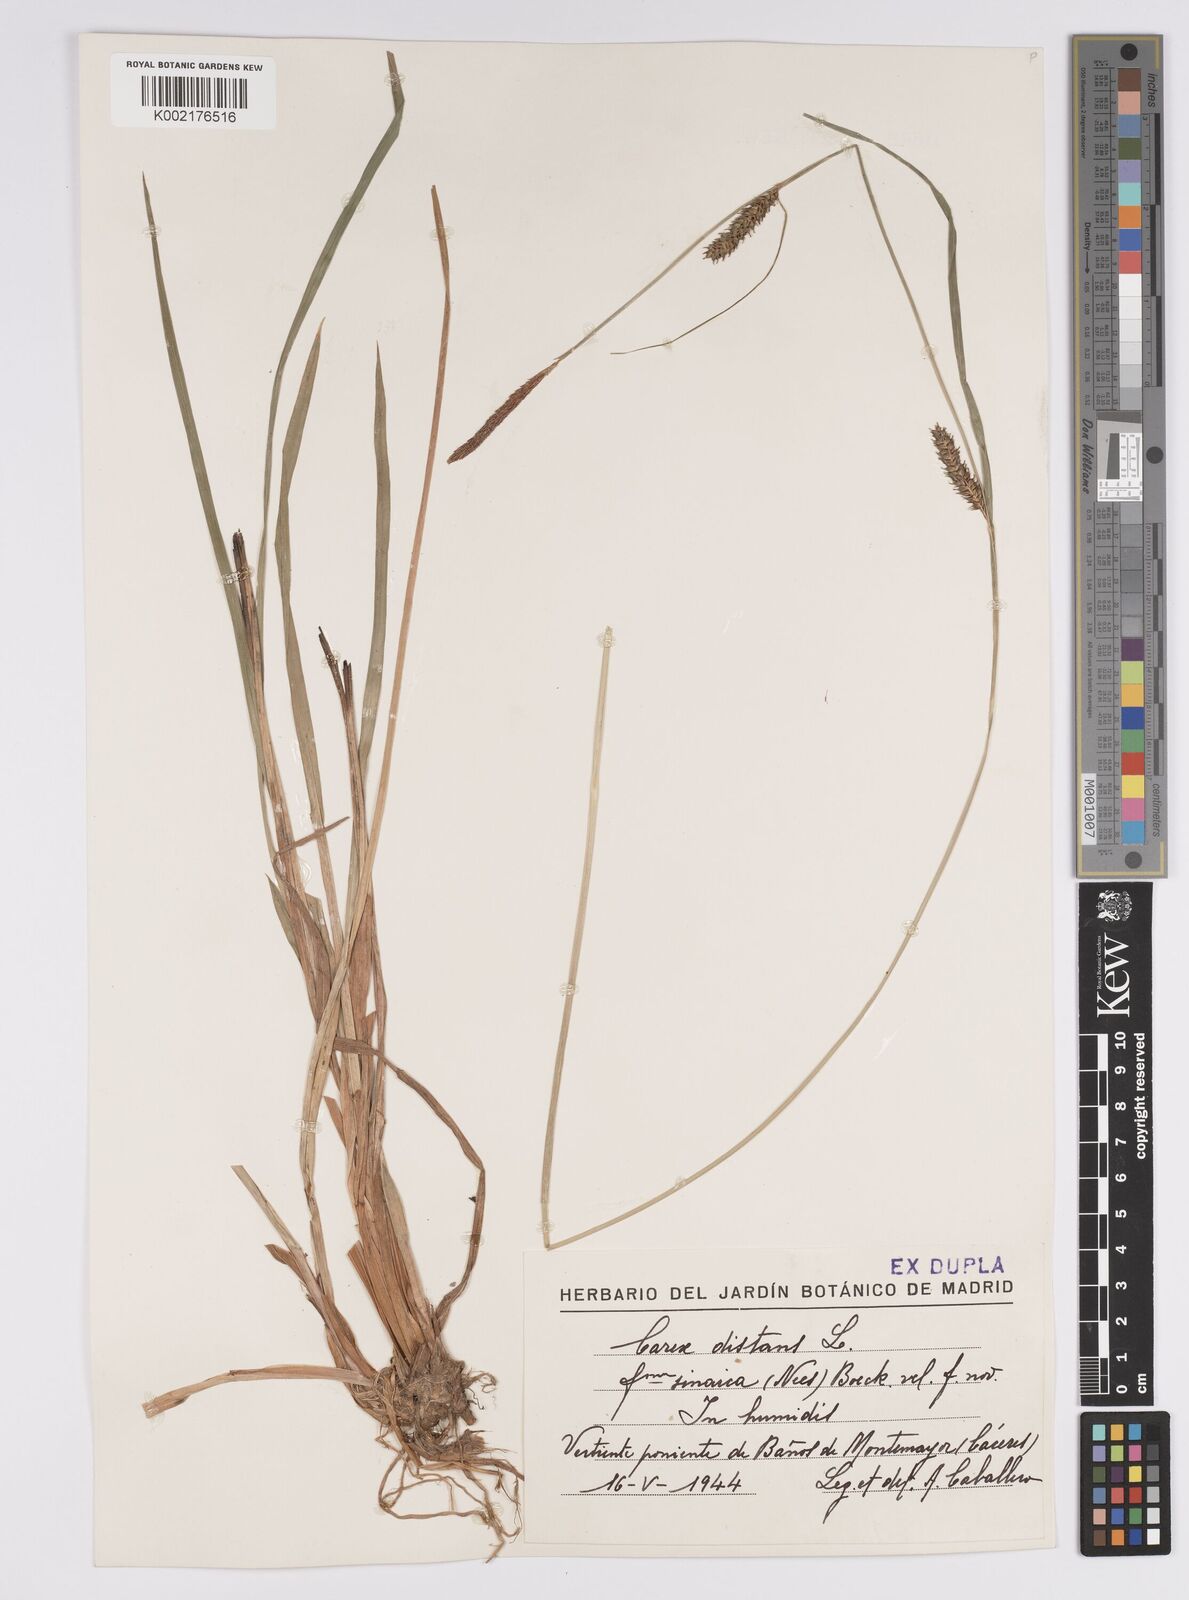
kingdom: Plantae
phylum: Tracheophyta
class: Liliopsida
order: Poales
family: Cyperaceae
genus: Carex
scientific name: Carex distans
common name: Distant sedge
